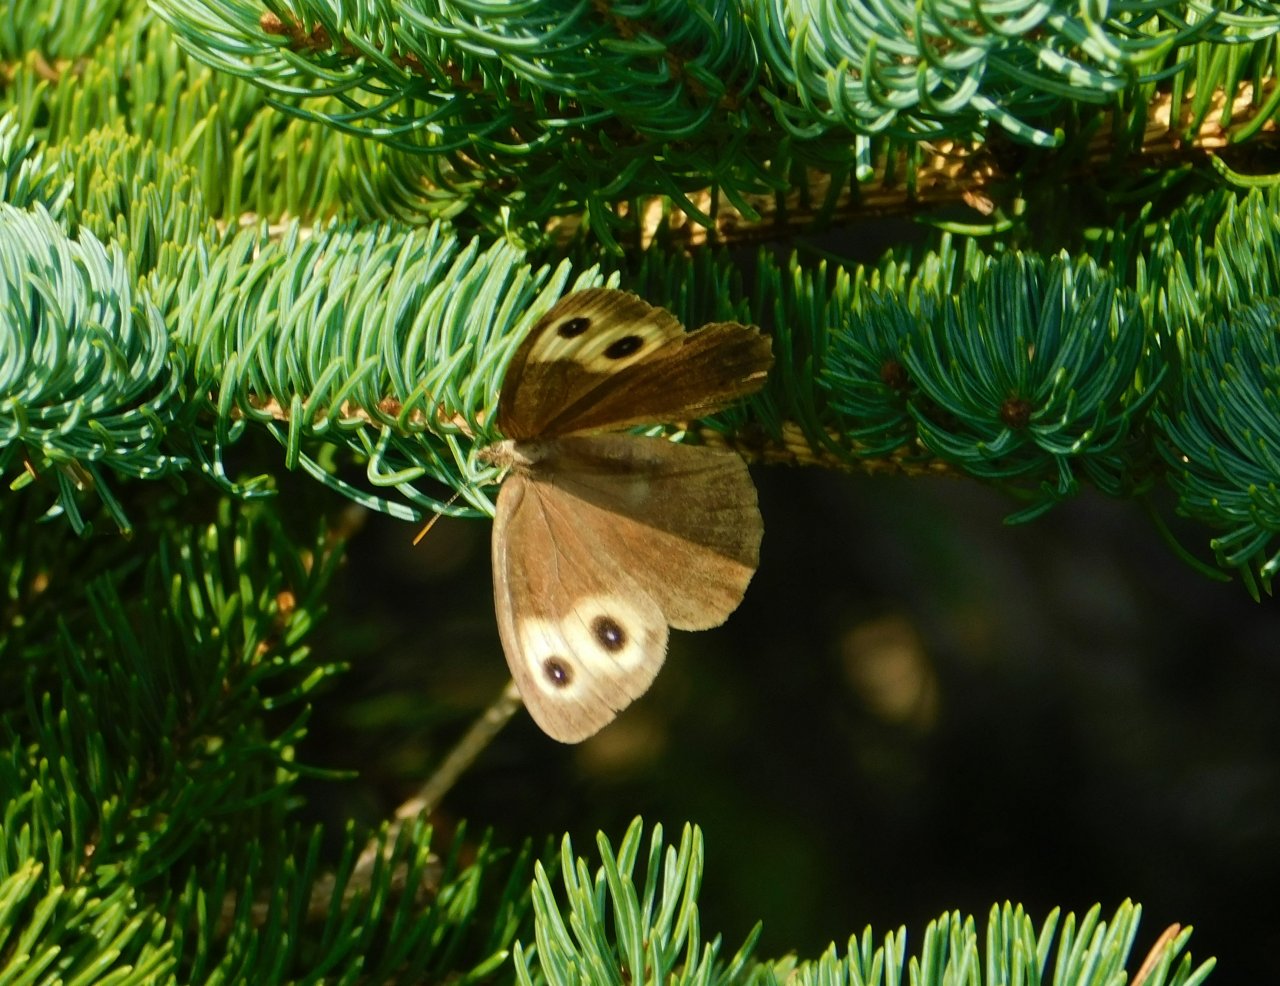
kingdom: Animalia
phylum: Arthropoda
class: Insecta
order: Lepidoptera
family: Nymphalidae
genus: Cercyonis
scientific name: Cercyonis pegala
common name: Common Wood-Nymph
